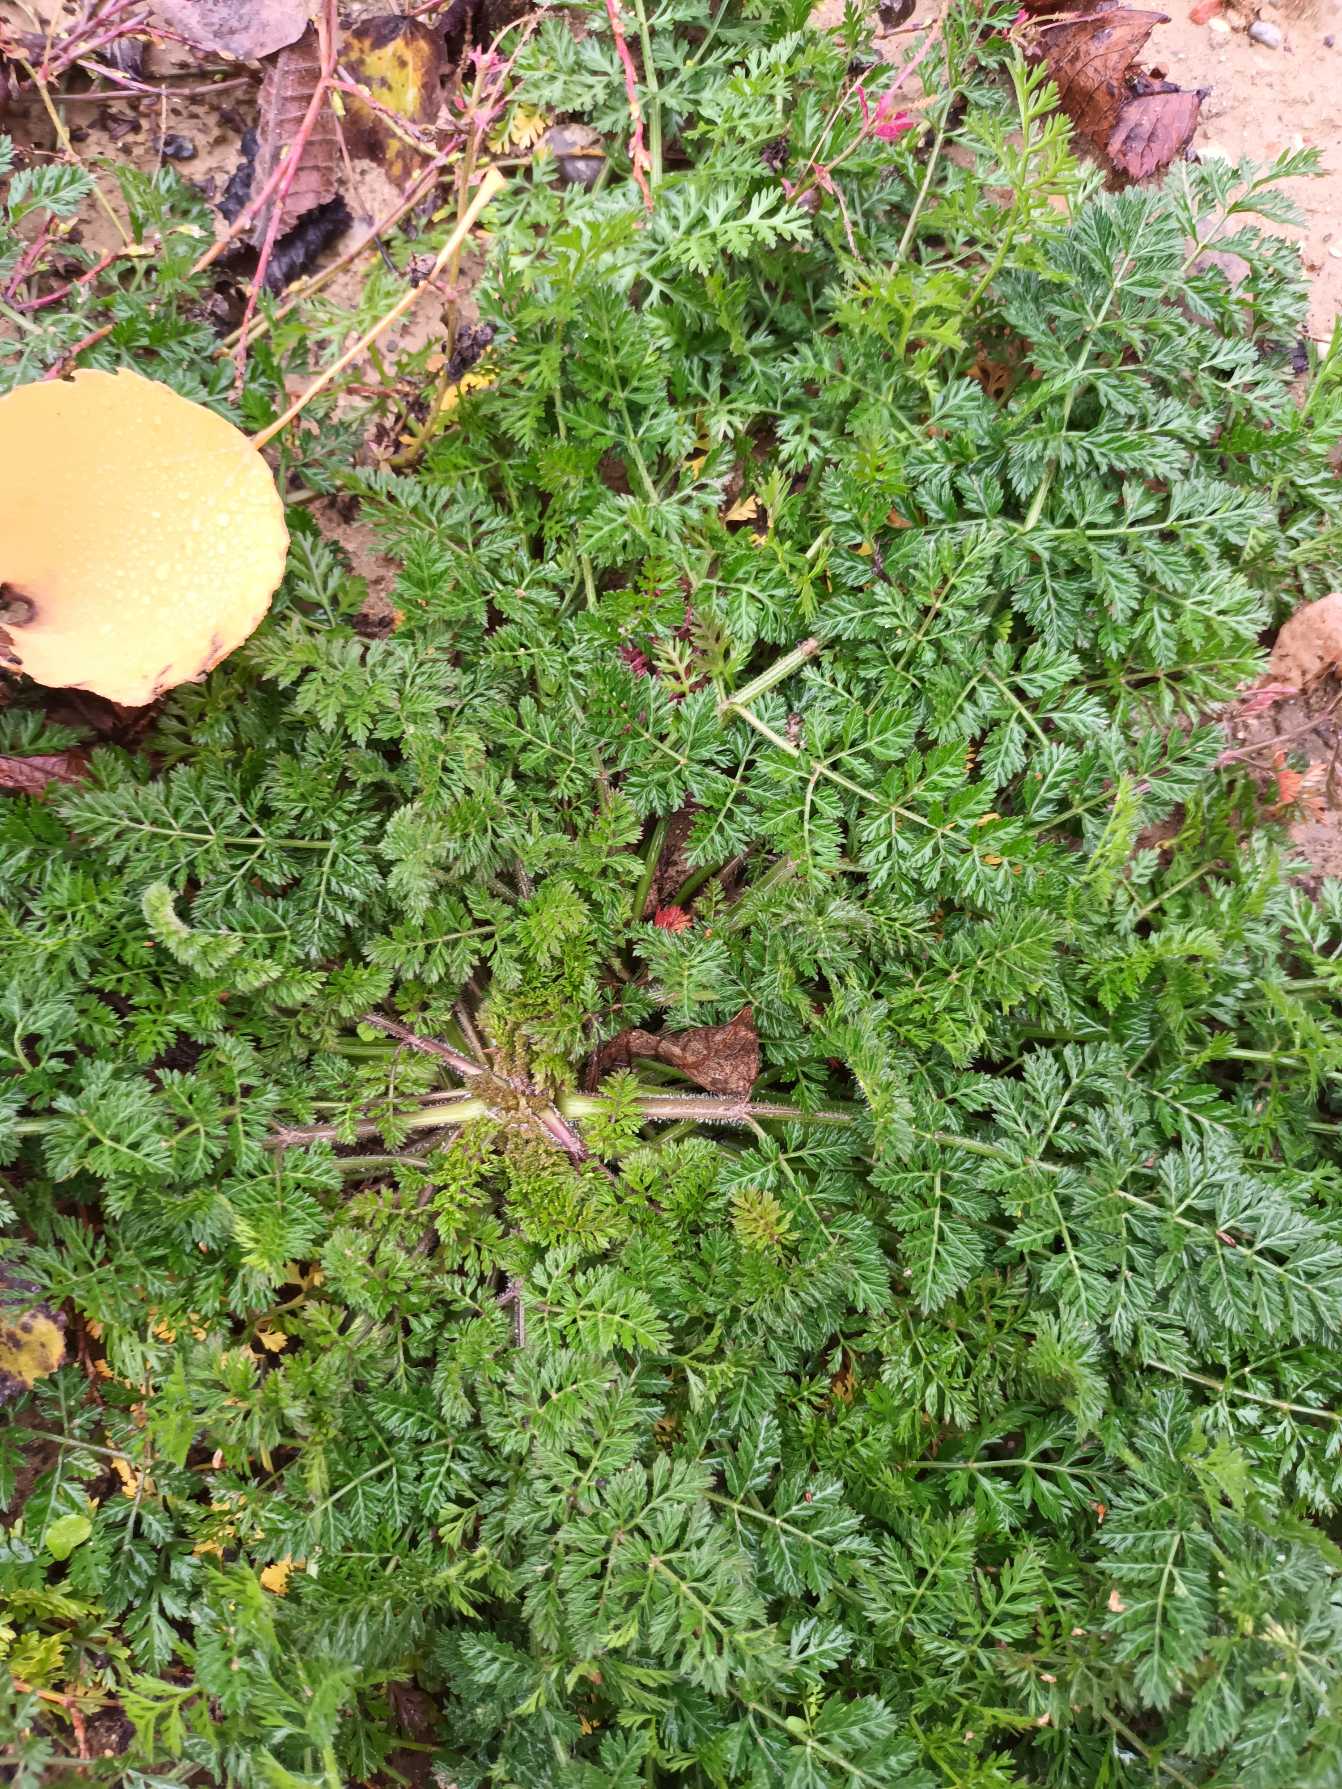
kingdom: Plantae
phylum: Tracheophyta
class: Magnoliopsida
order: Apiales
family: Apiaceae
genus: Daucus
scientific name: Daucus carota
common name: Gulerod
